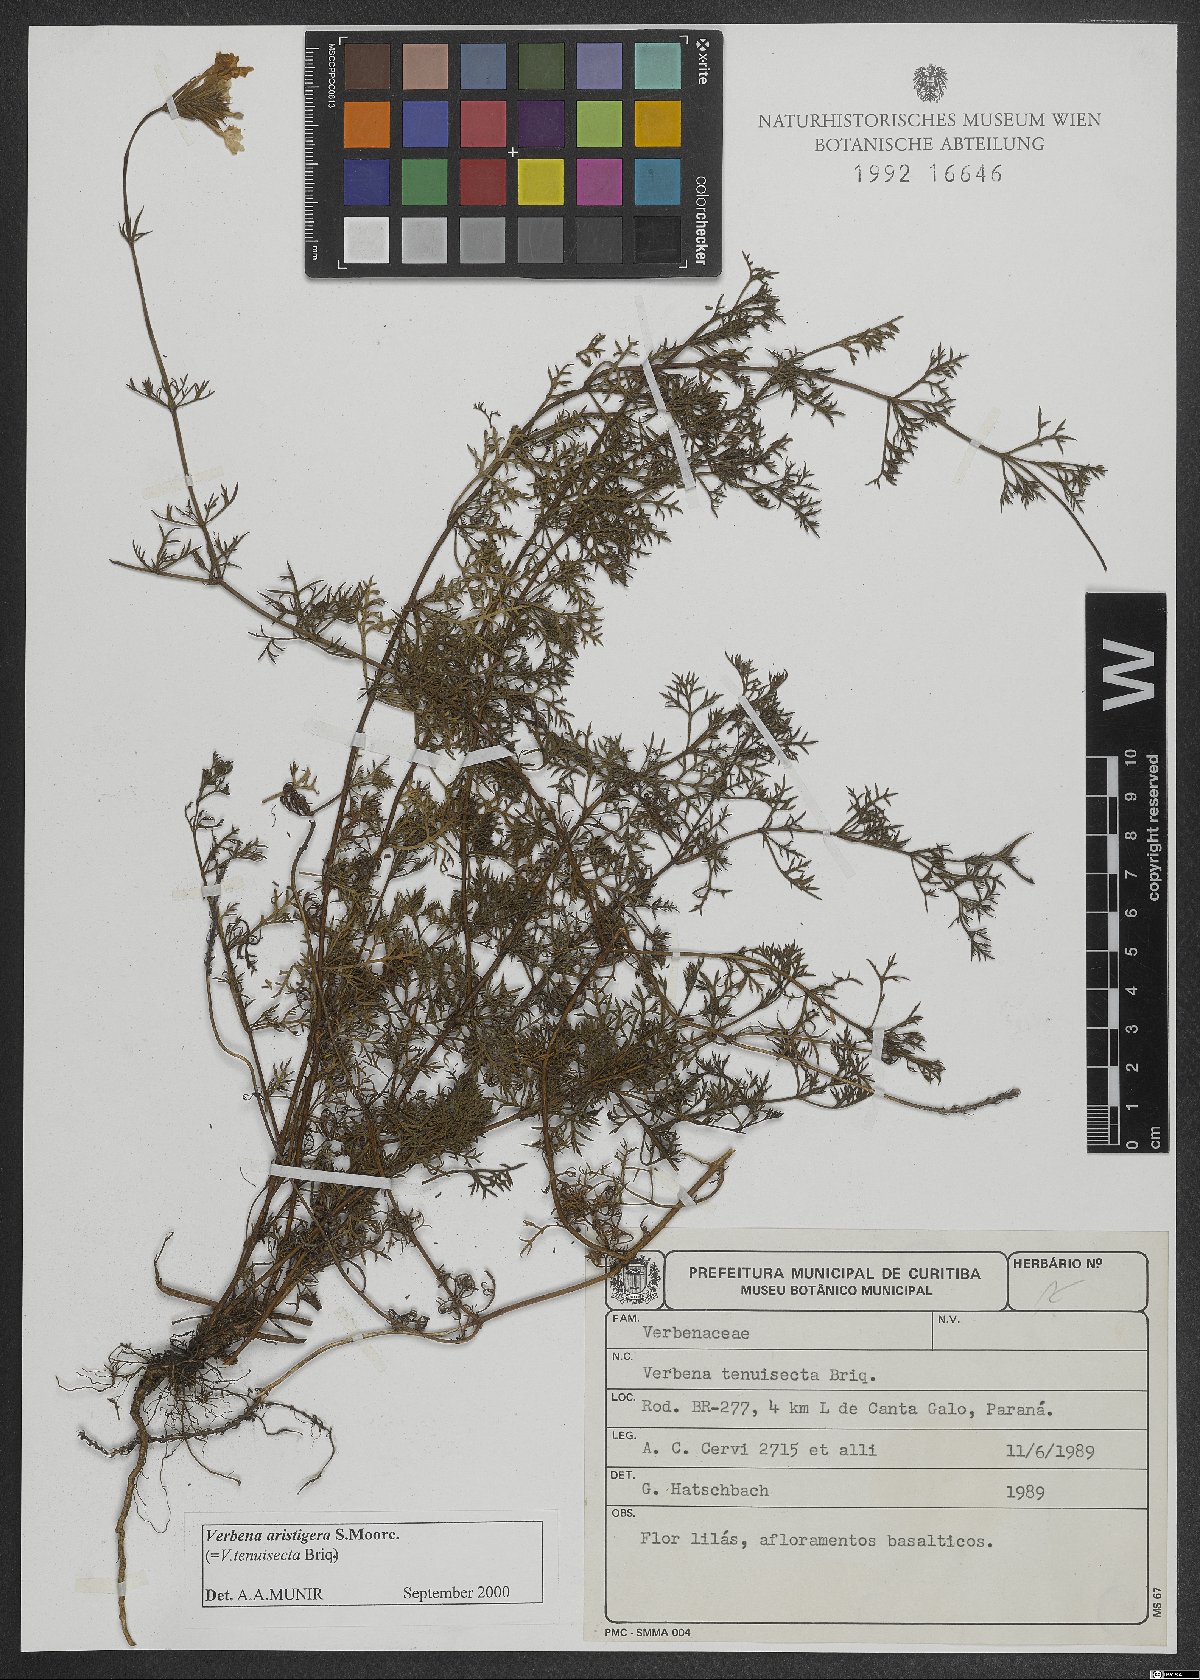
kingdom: Plantae
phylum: Tracheophyta
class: Magnoliopsida
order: Lamiales
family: Verbenaceae
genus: Verbena
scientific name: Verbena aristigera
